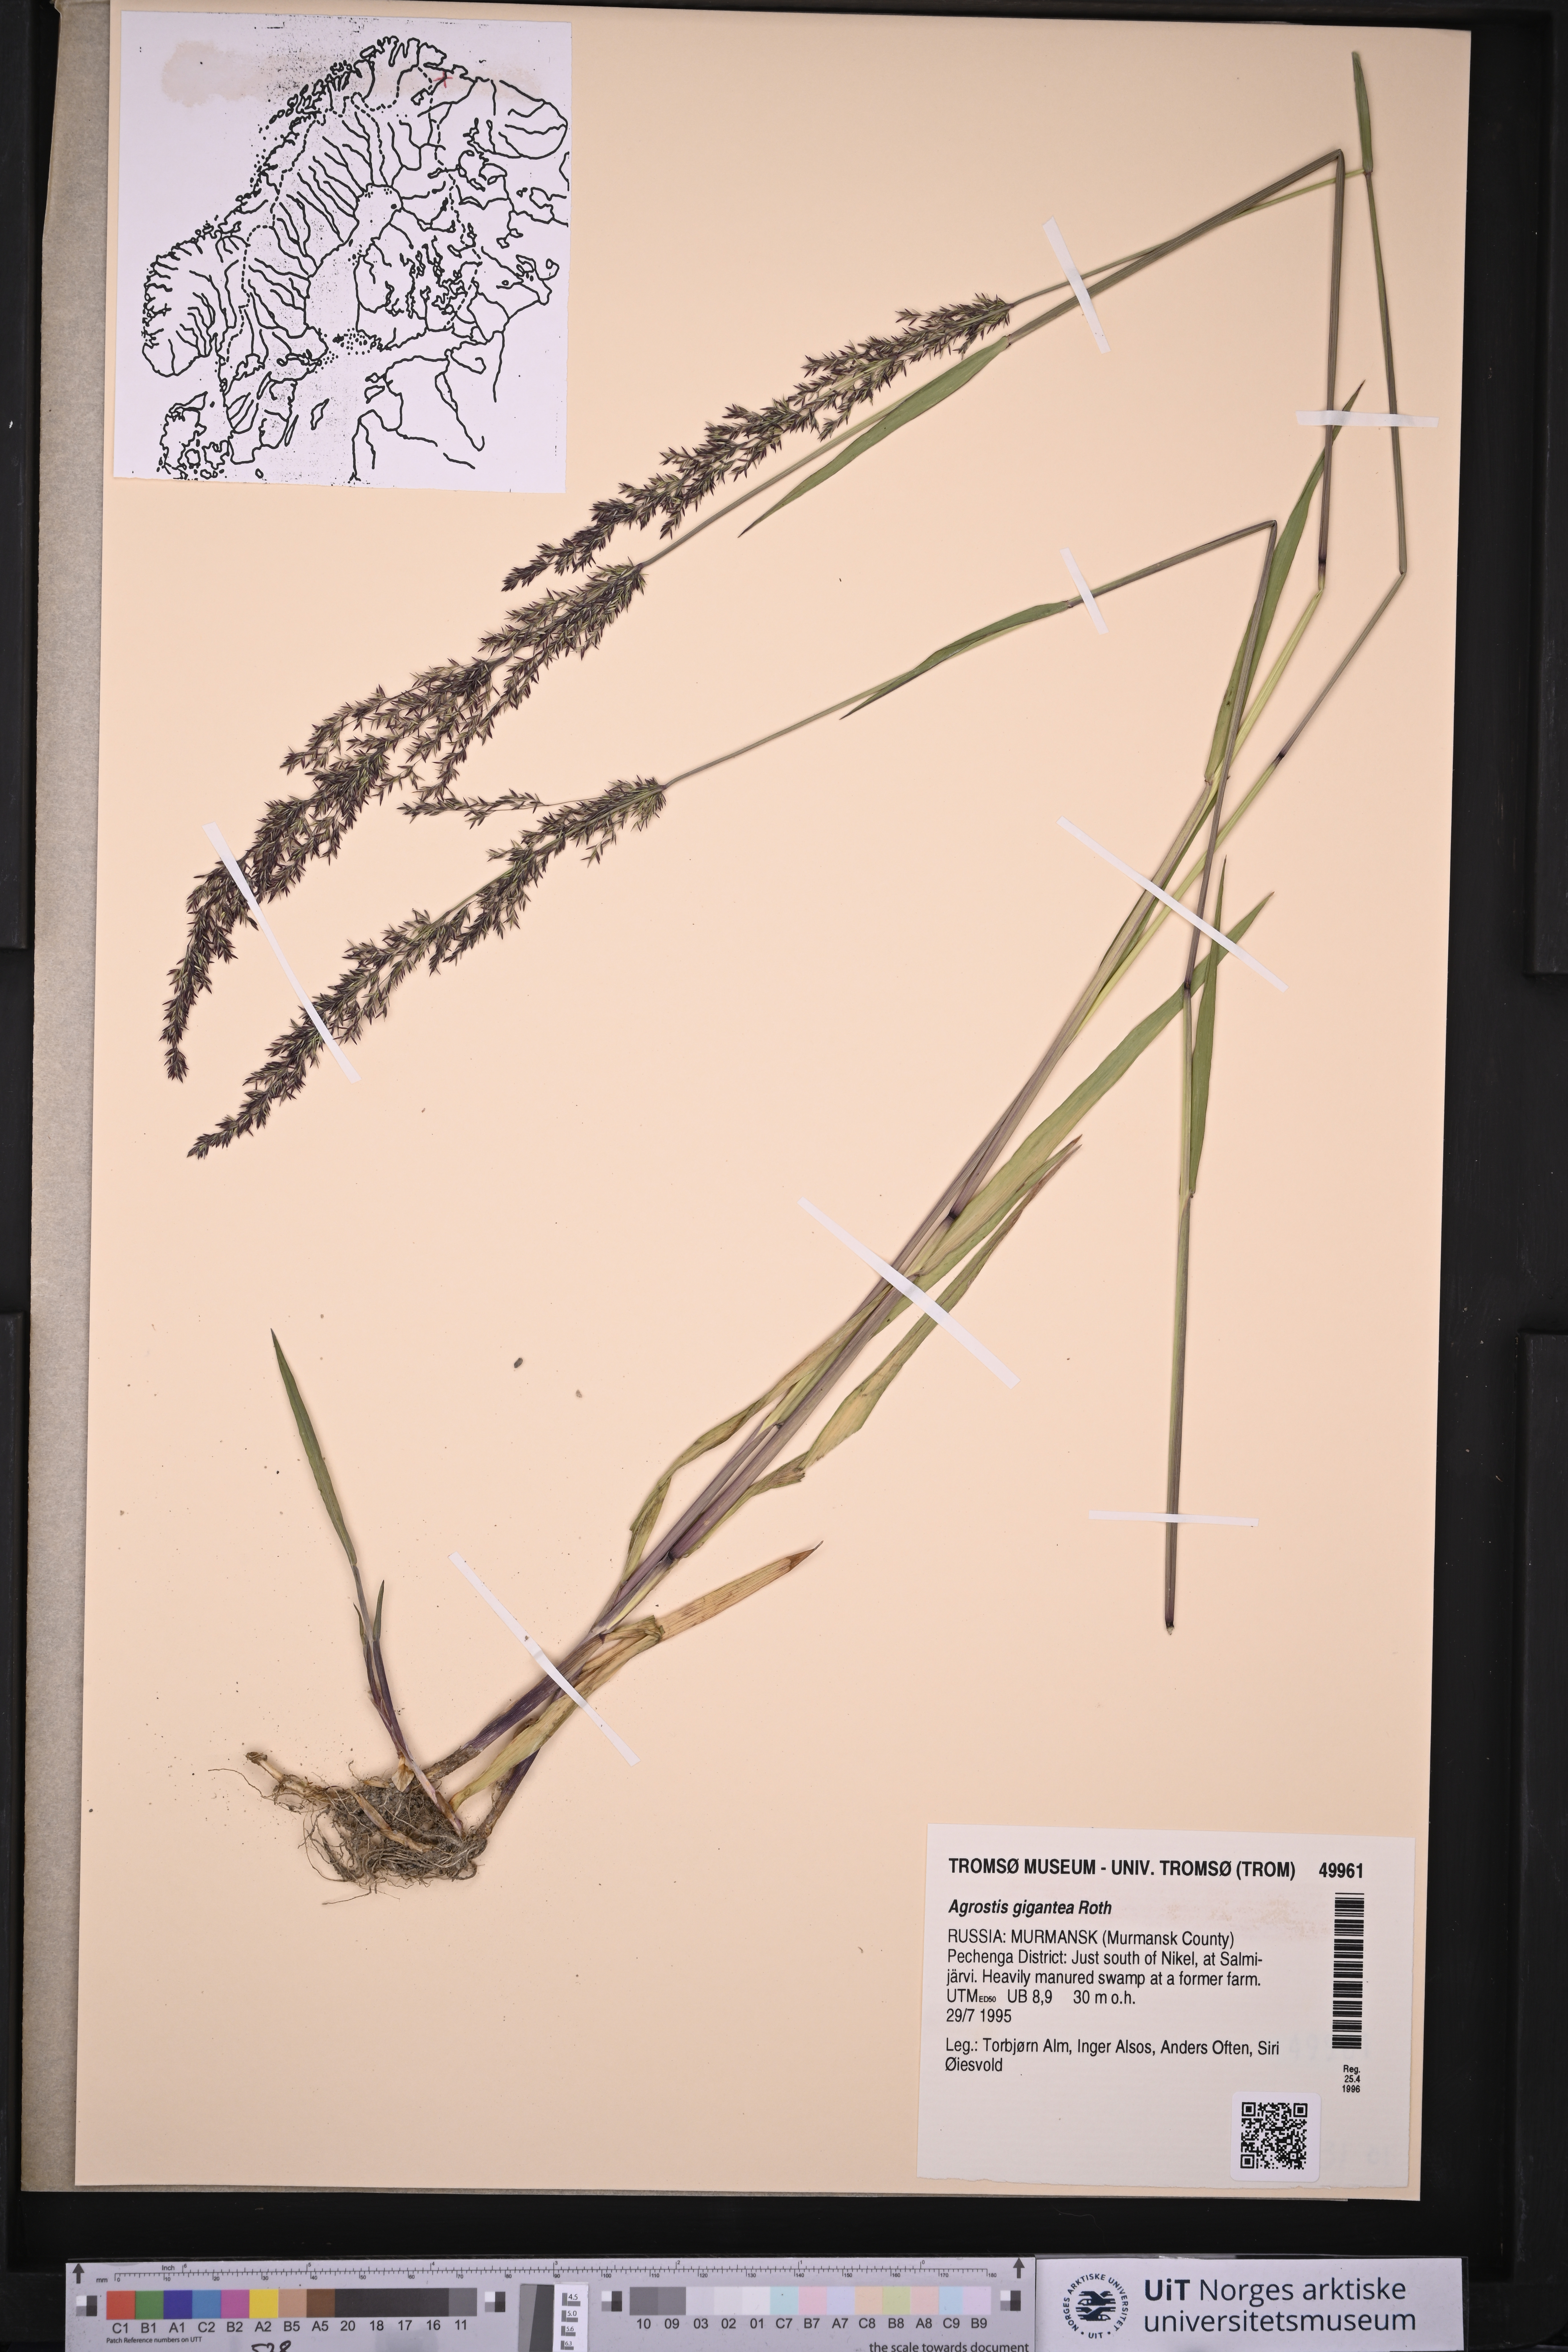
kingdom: Plantae
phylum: Tracheophyta
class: Liliopsida
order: Poales
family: Poaceae
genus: Agrostis
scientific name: Agrostis gigantea
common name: Black bent
